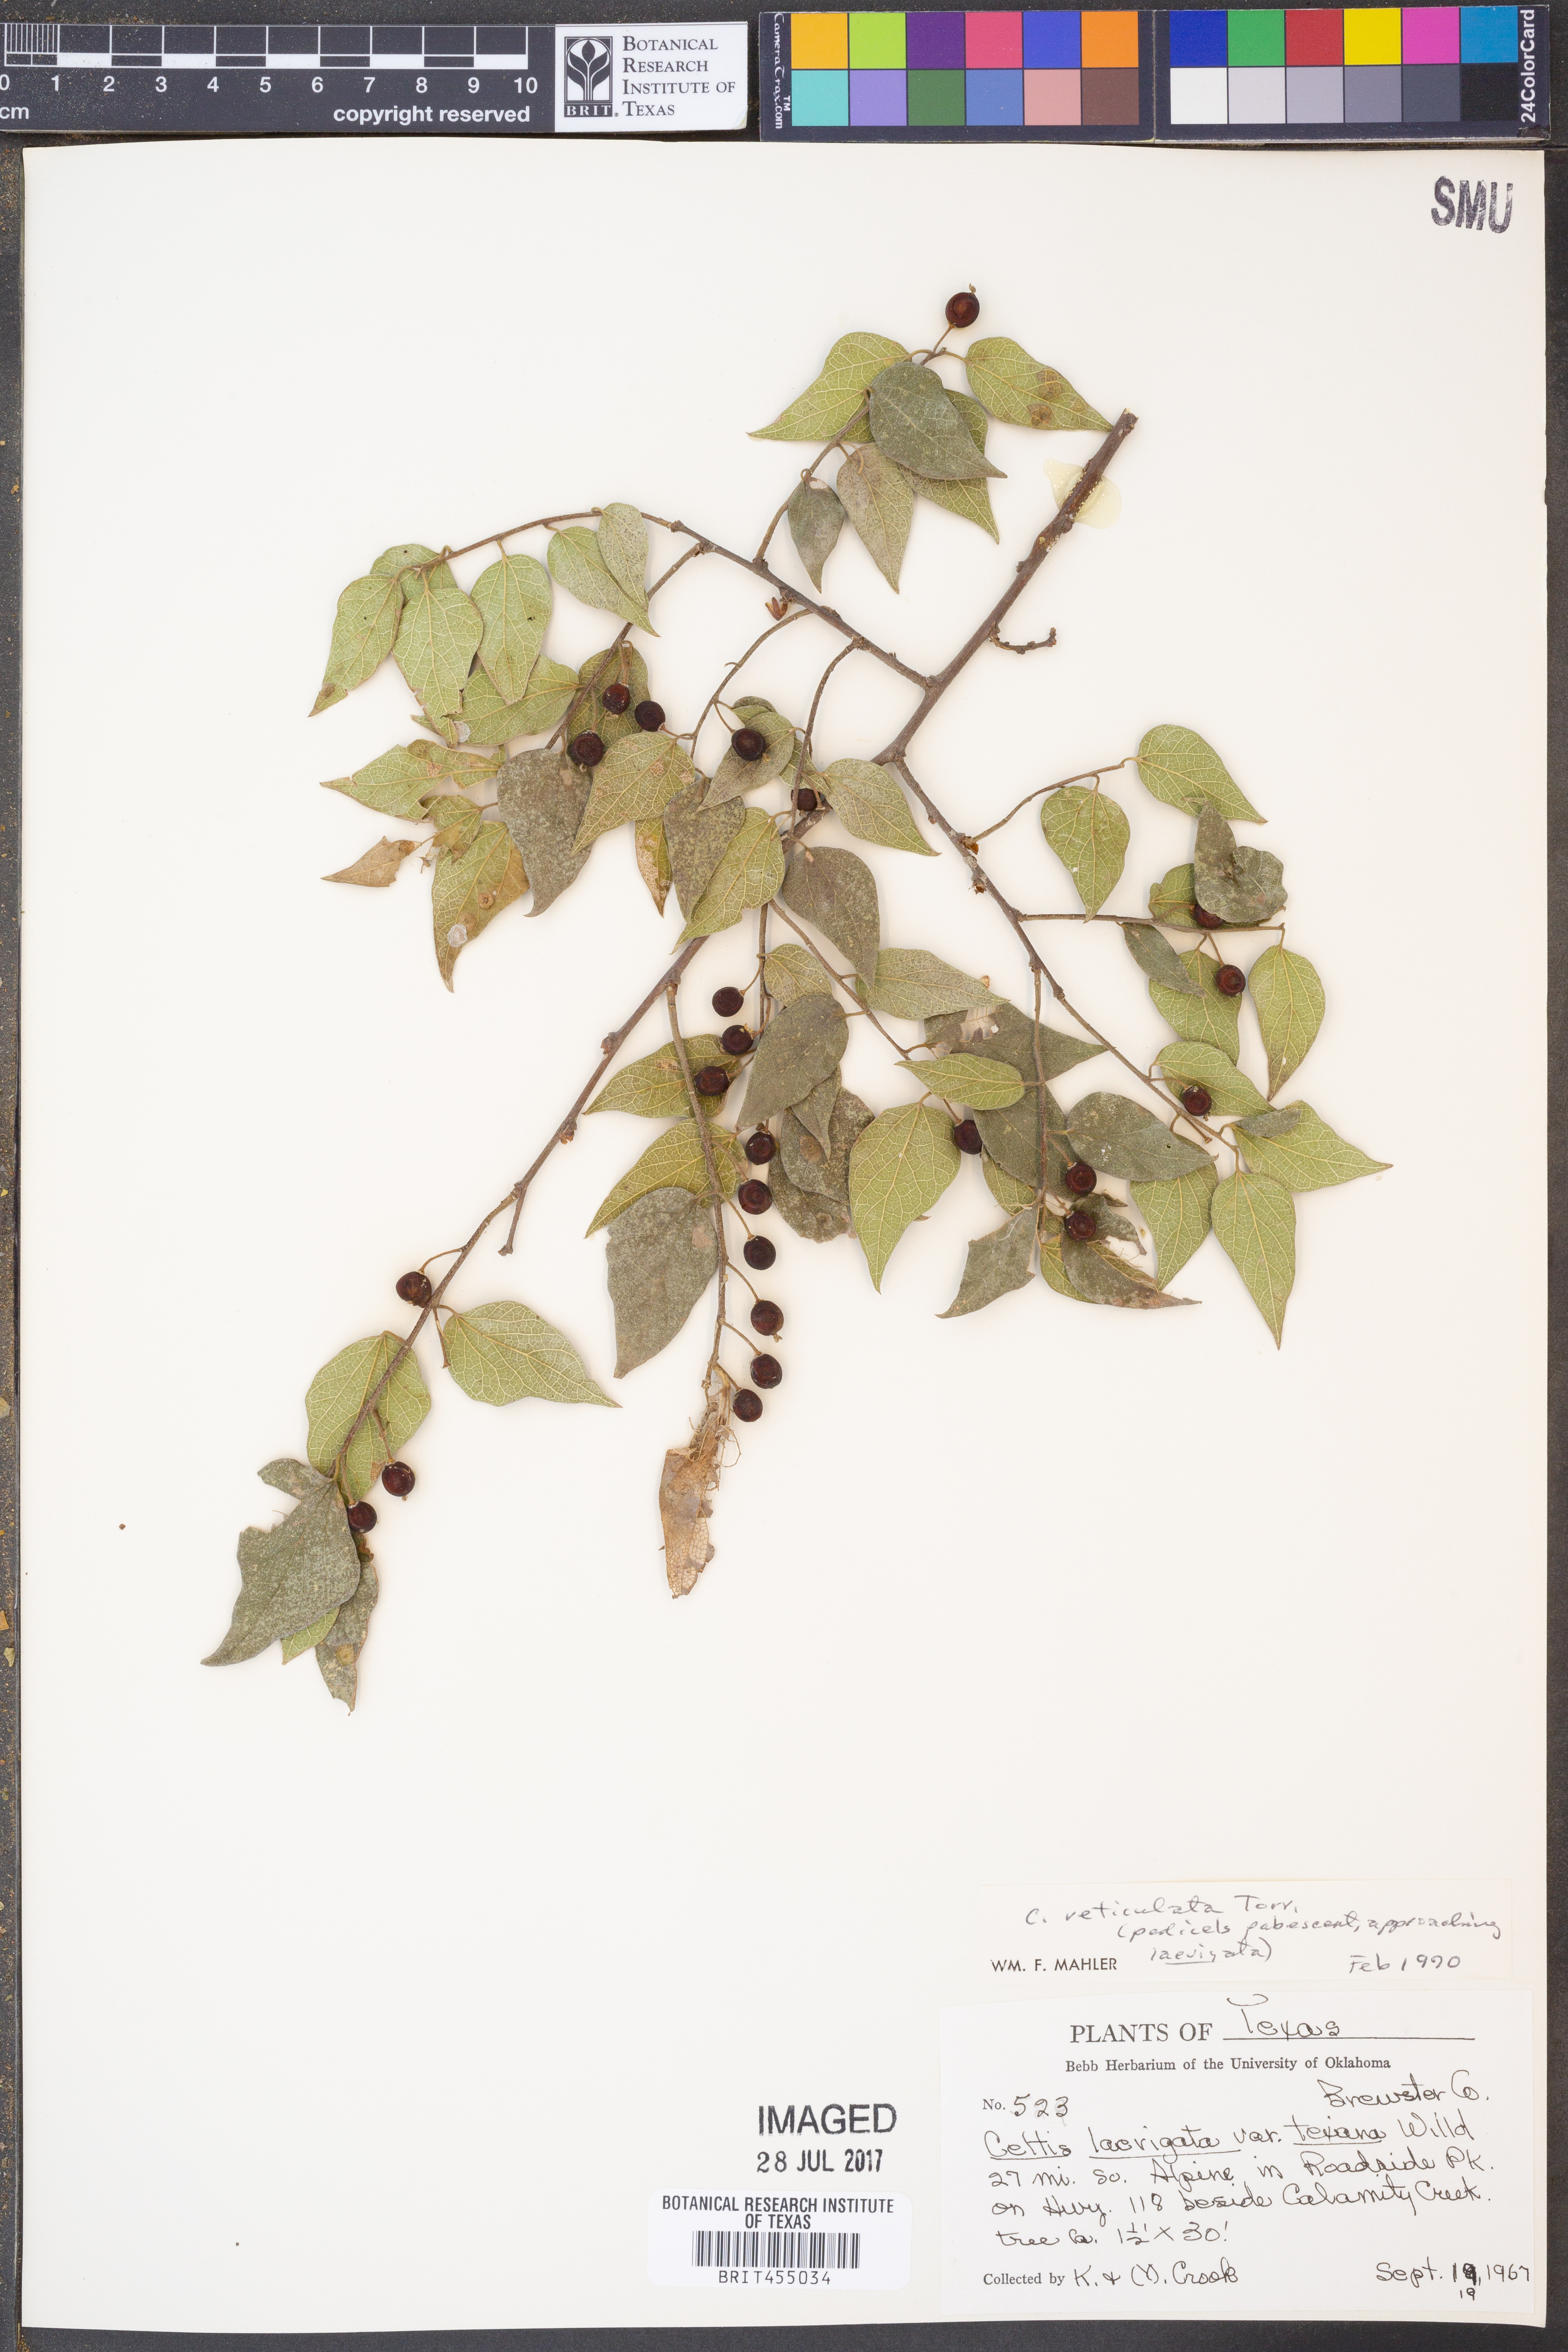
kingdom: Plantae
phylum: Tracheophyta
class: Magnoliopsida
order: Rosales
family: Cannabaceae
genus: Celtis
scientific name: Celtis laevigata
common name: Sugarberry
